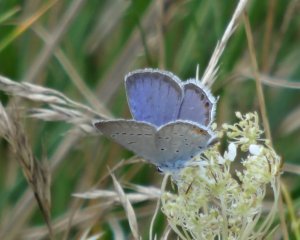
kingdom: Animalia
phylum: Arthropoda
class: Insecta
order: Lepidoptera
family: Lycaenidae
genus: Elkalyce
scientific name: Elkalyce comyntas
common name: Eastern Tailed-Blue
